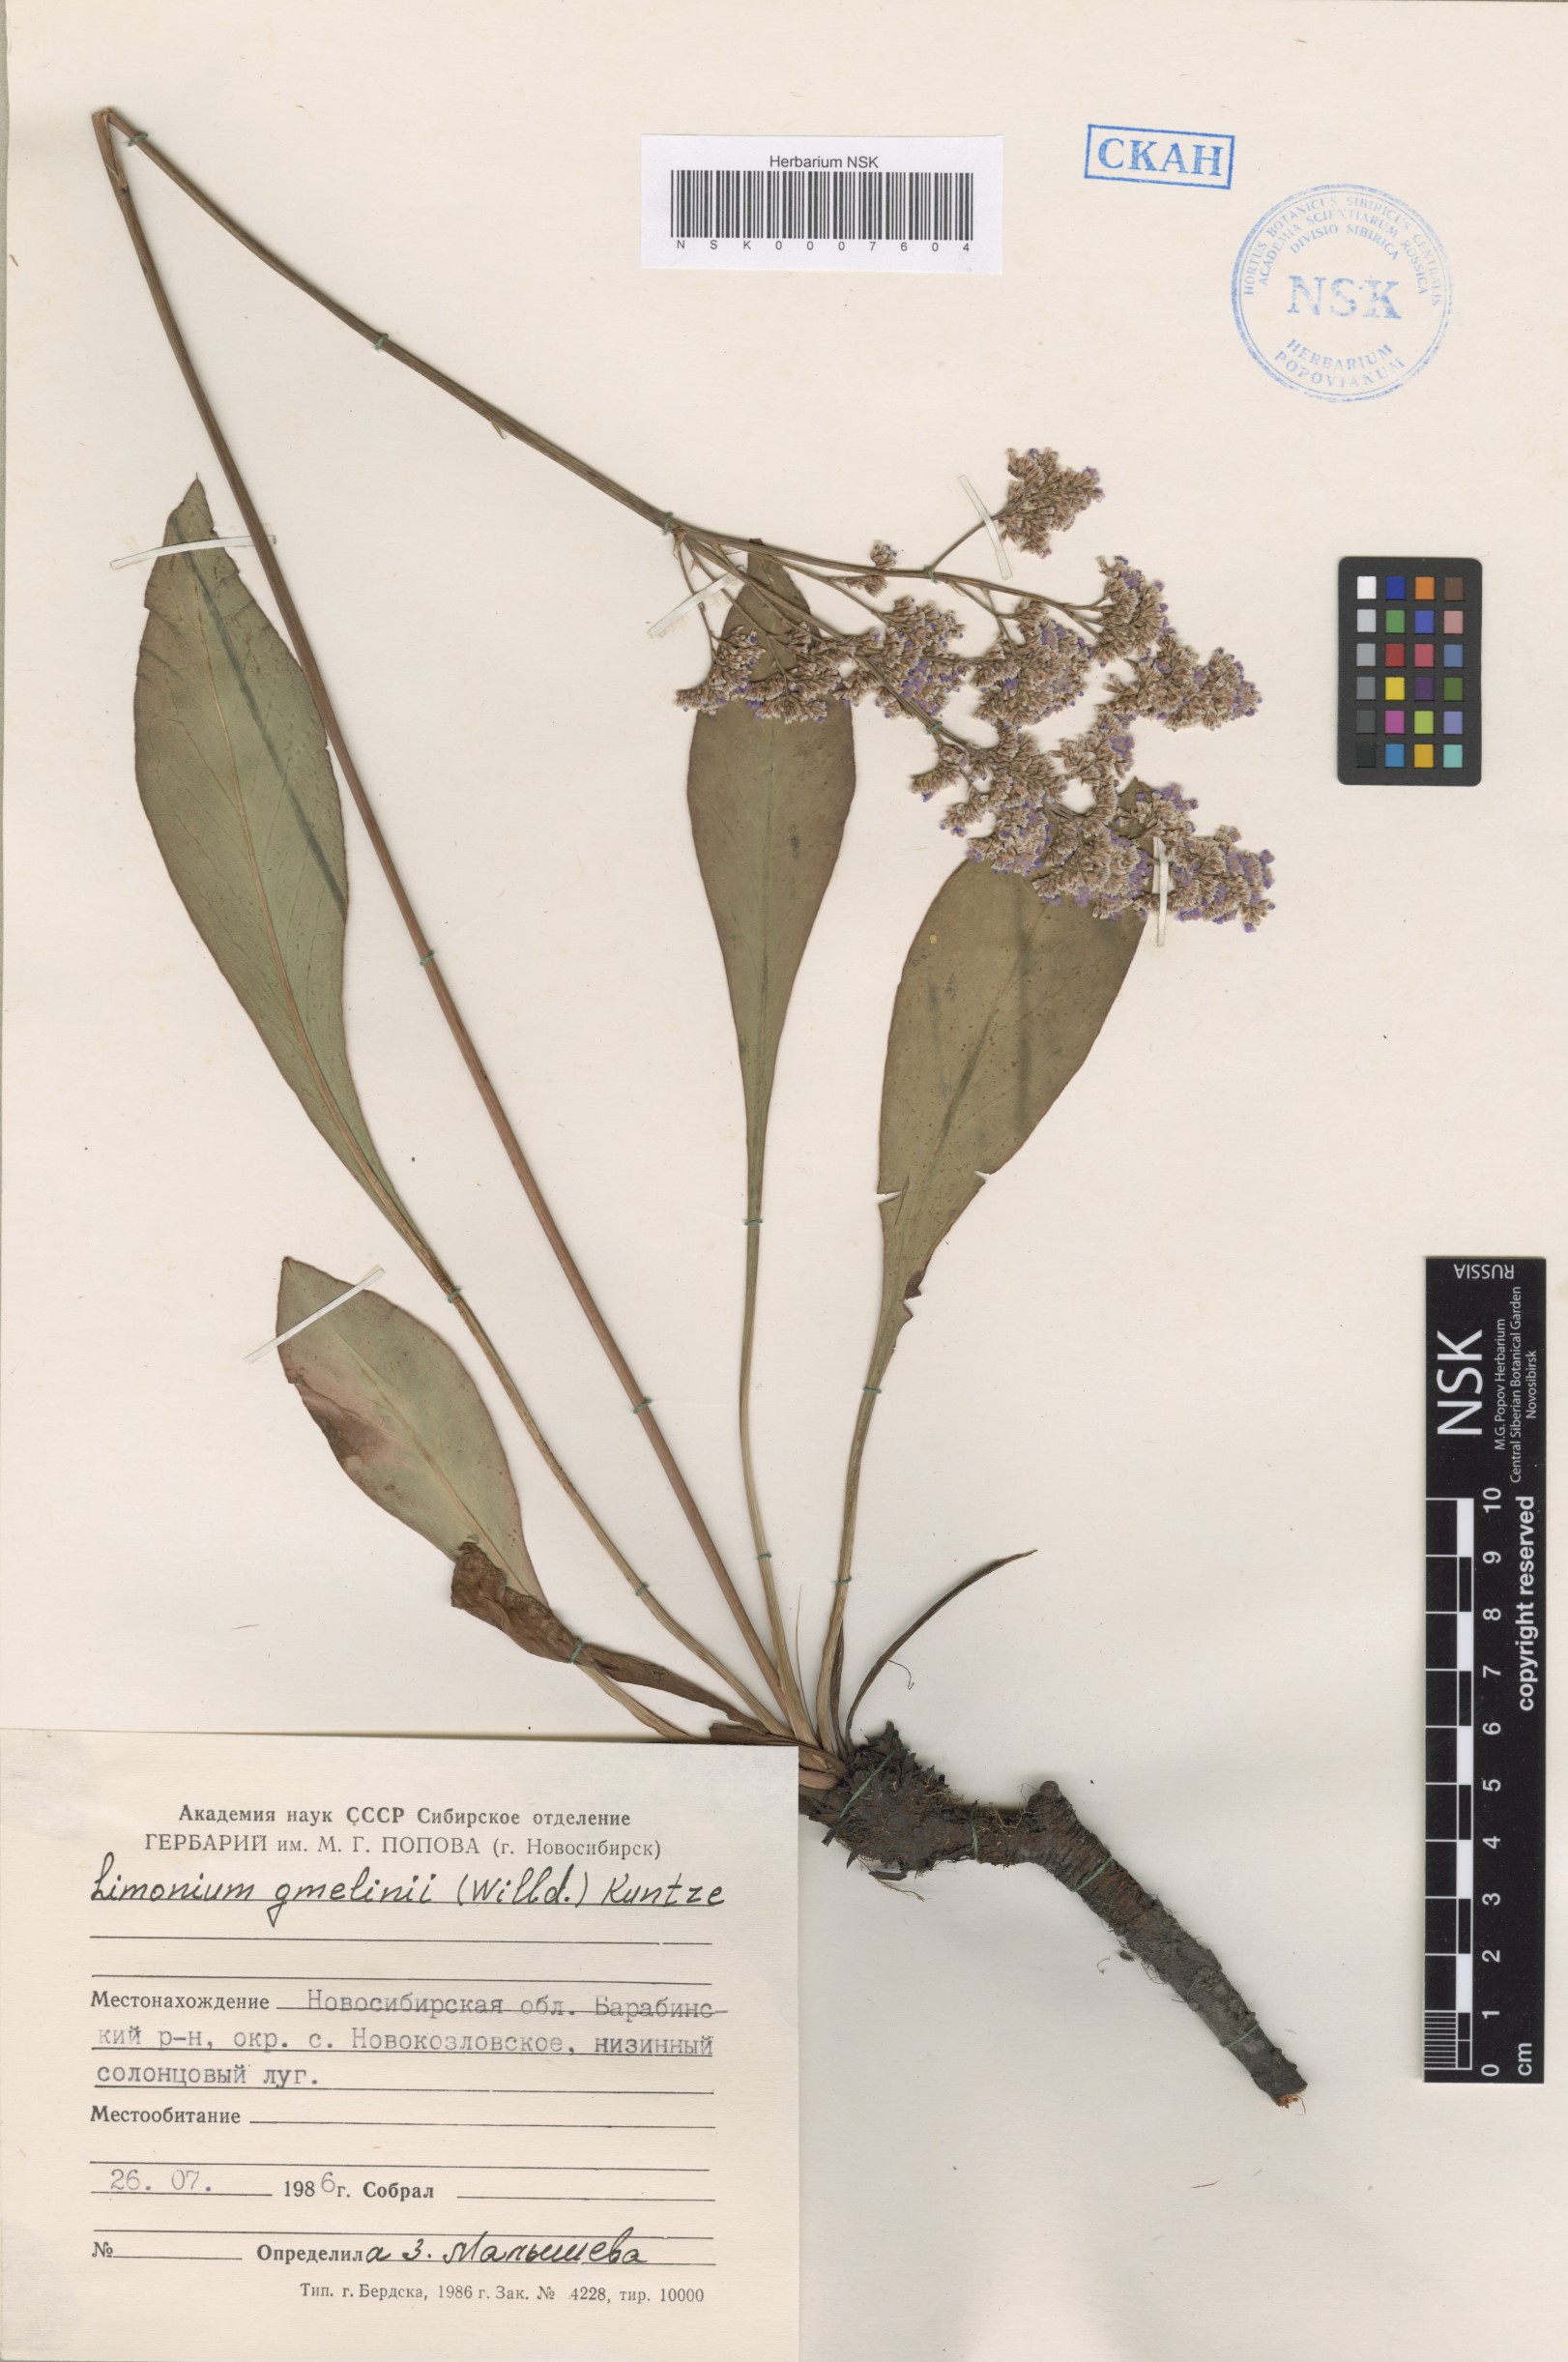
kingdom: Plantae
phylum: Tracheophyta
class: Magnoliopsida
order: Caryophyllales
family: Plumbaginaceae
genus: Limonium
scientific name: Limonium gmelini
